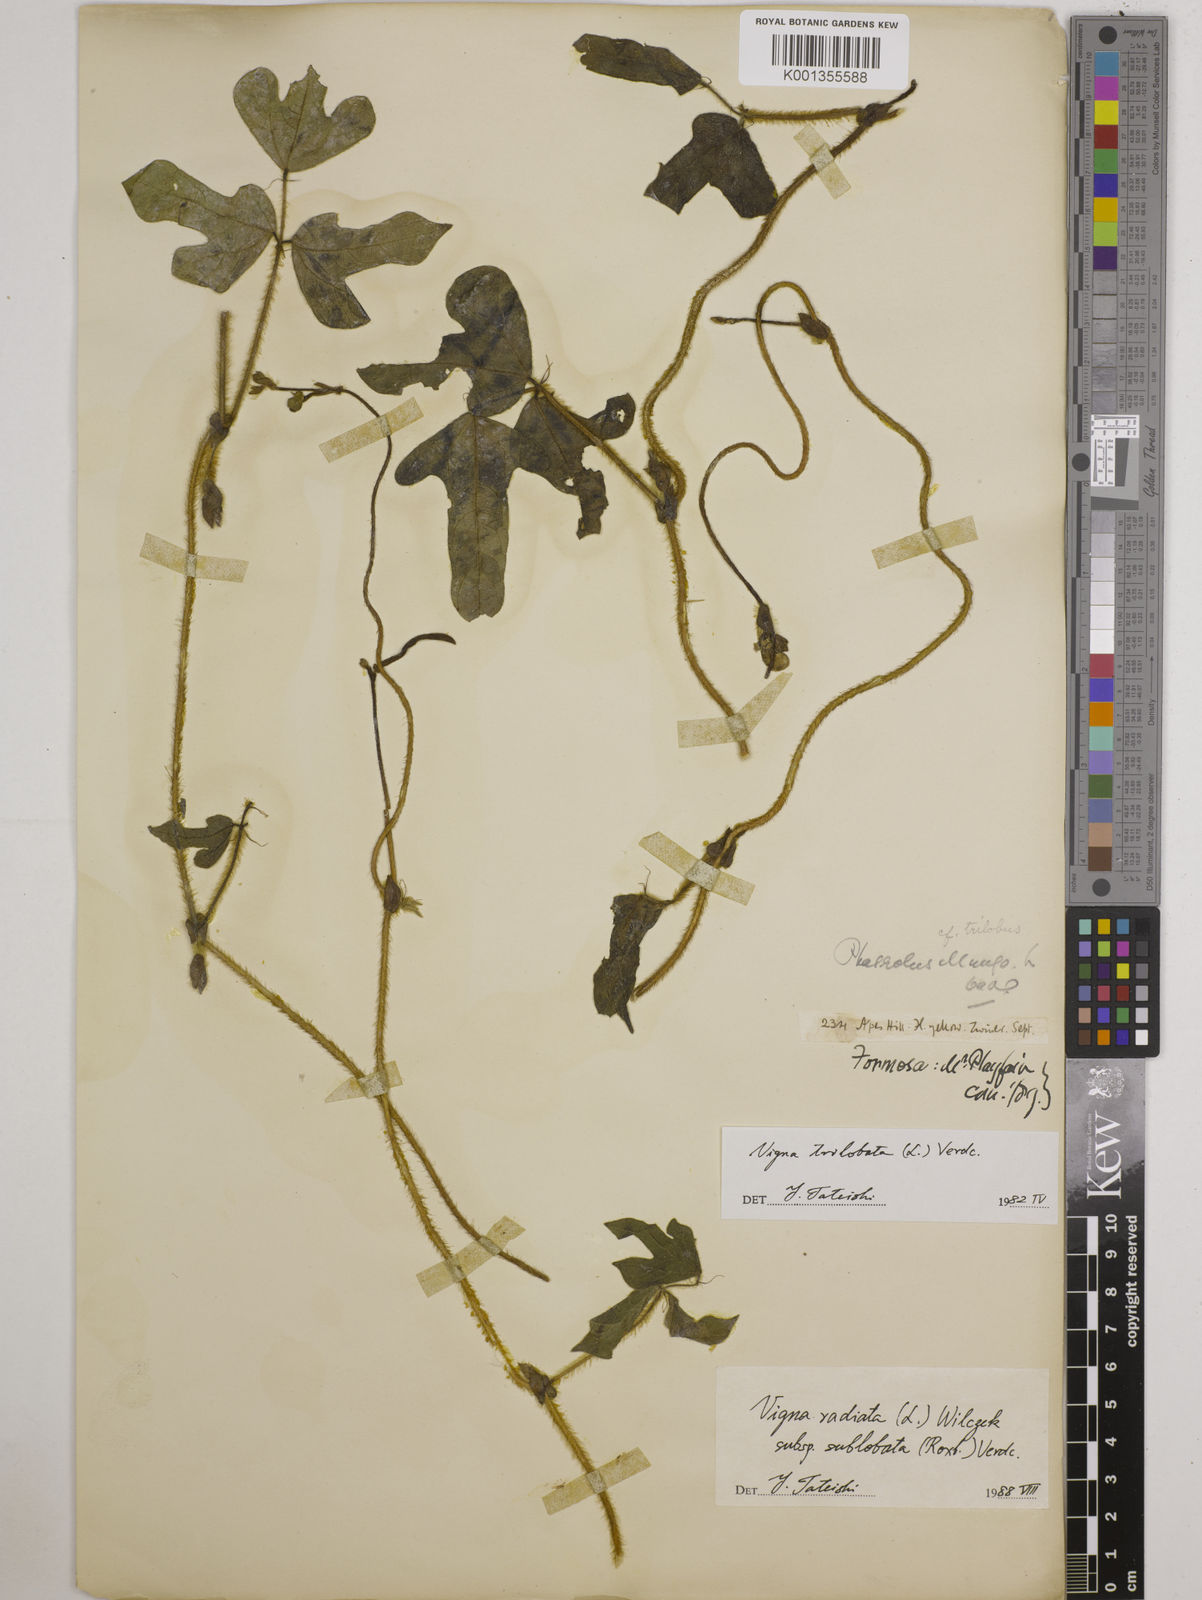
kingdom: Plantae
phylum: Tracheophyta
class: Magnoliopsida
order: Fabales
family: Fabaceae
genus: Vigna
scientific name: Vigna trilobata
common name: Jungli-bean
